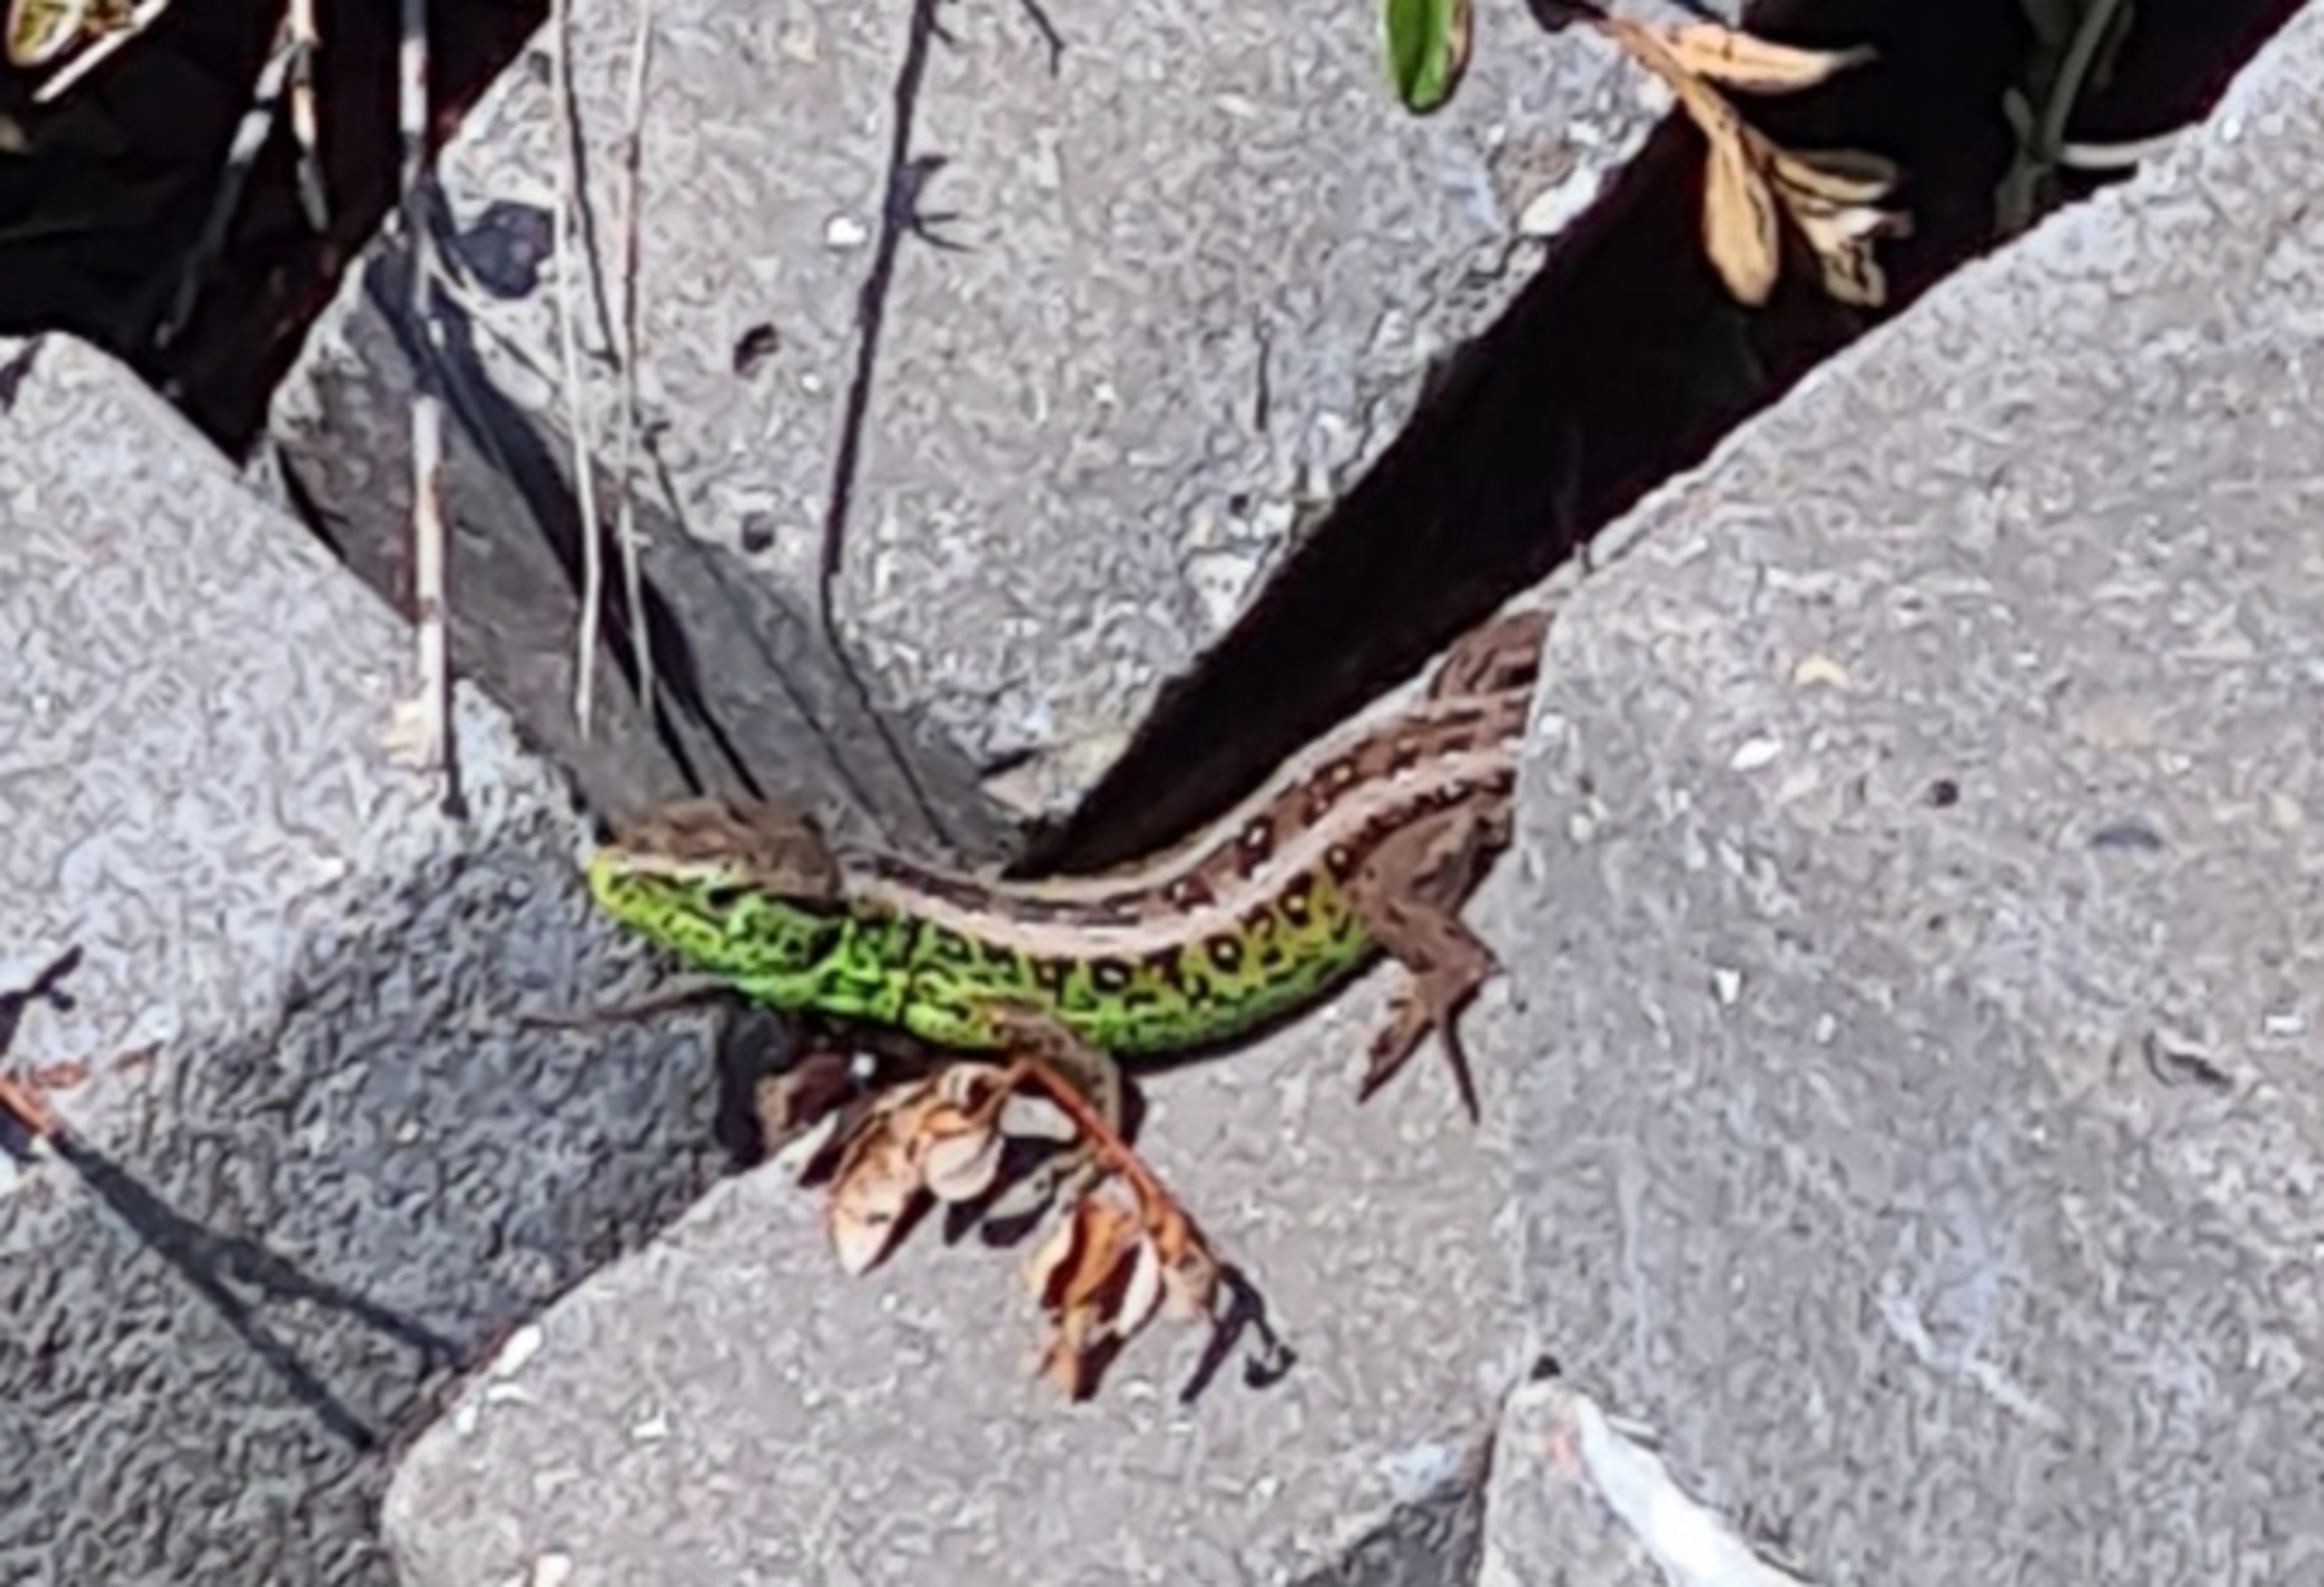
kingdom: Animalia
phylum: Chordata
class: Squamata
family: Lacertidae
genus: Lacerta
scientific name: Lacerta agilis
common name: Markfirben
